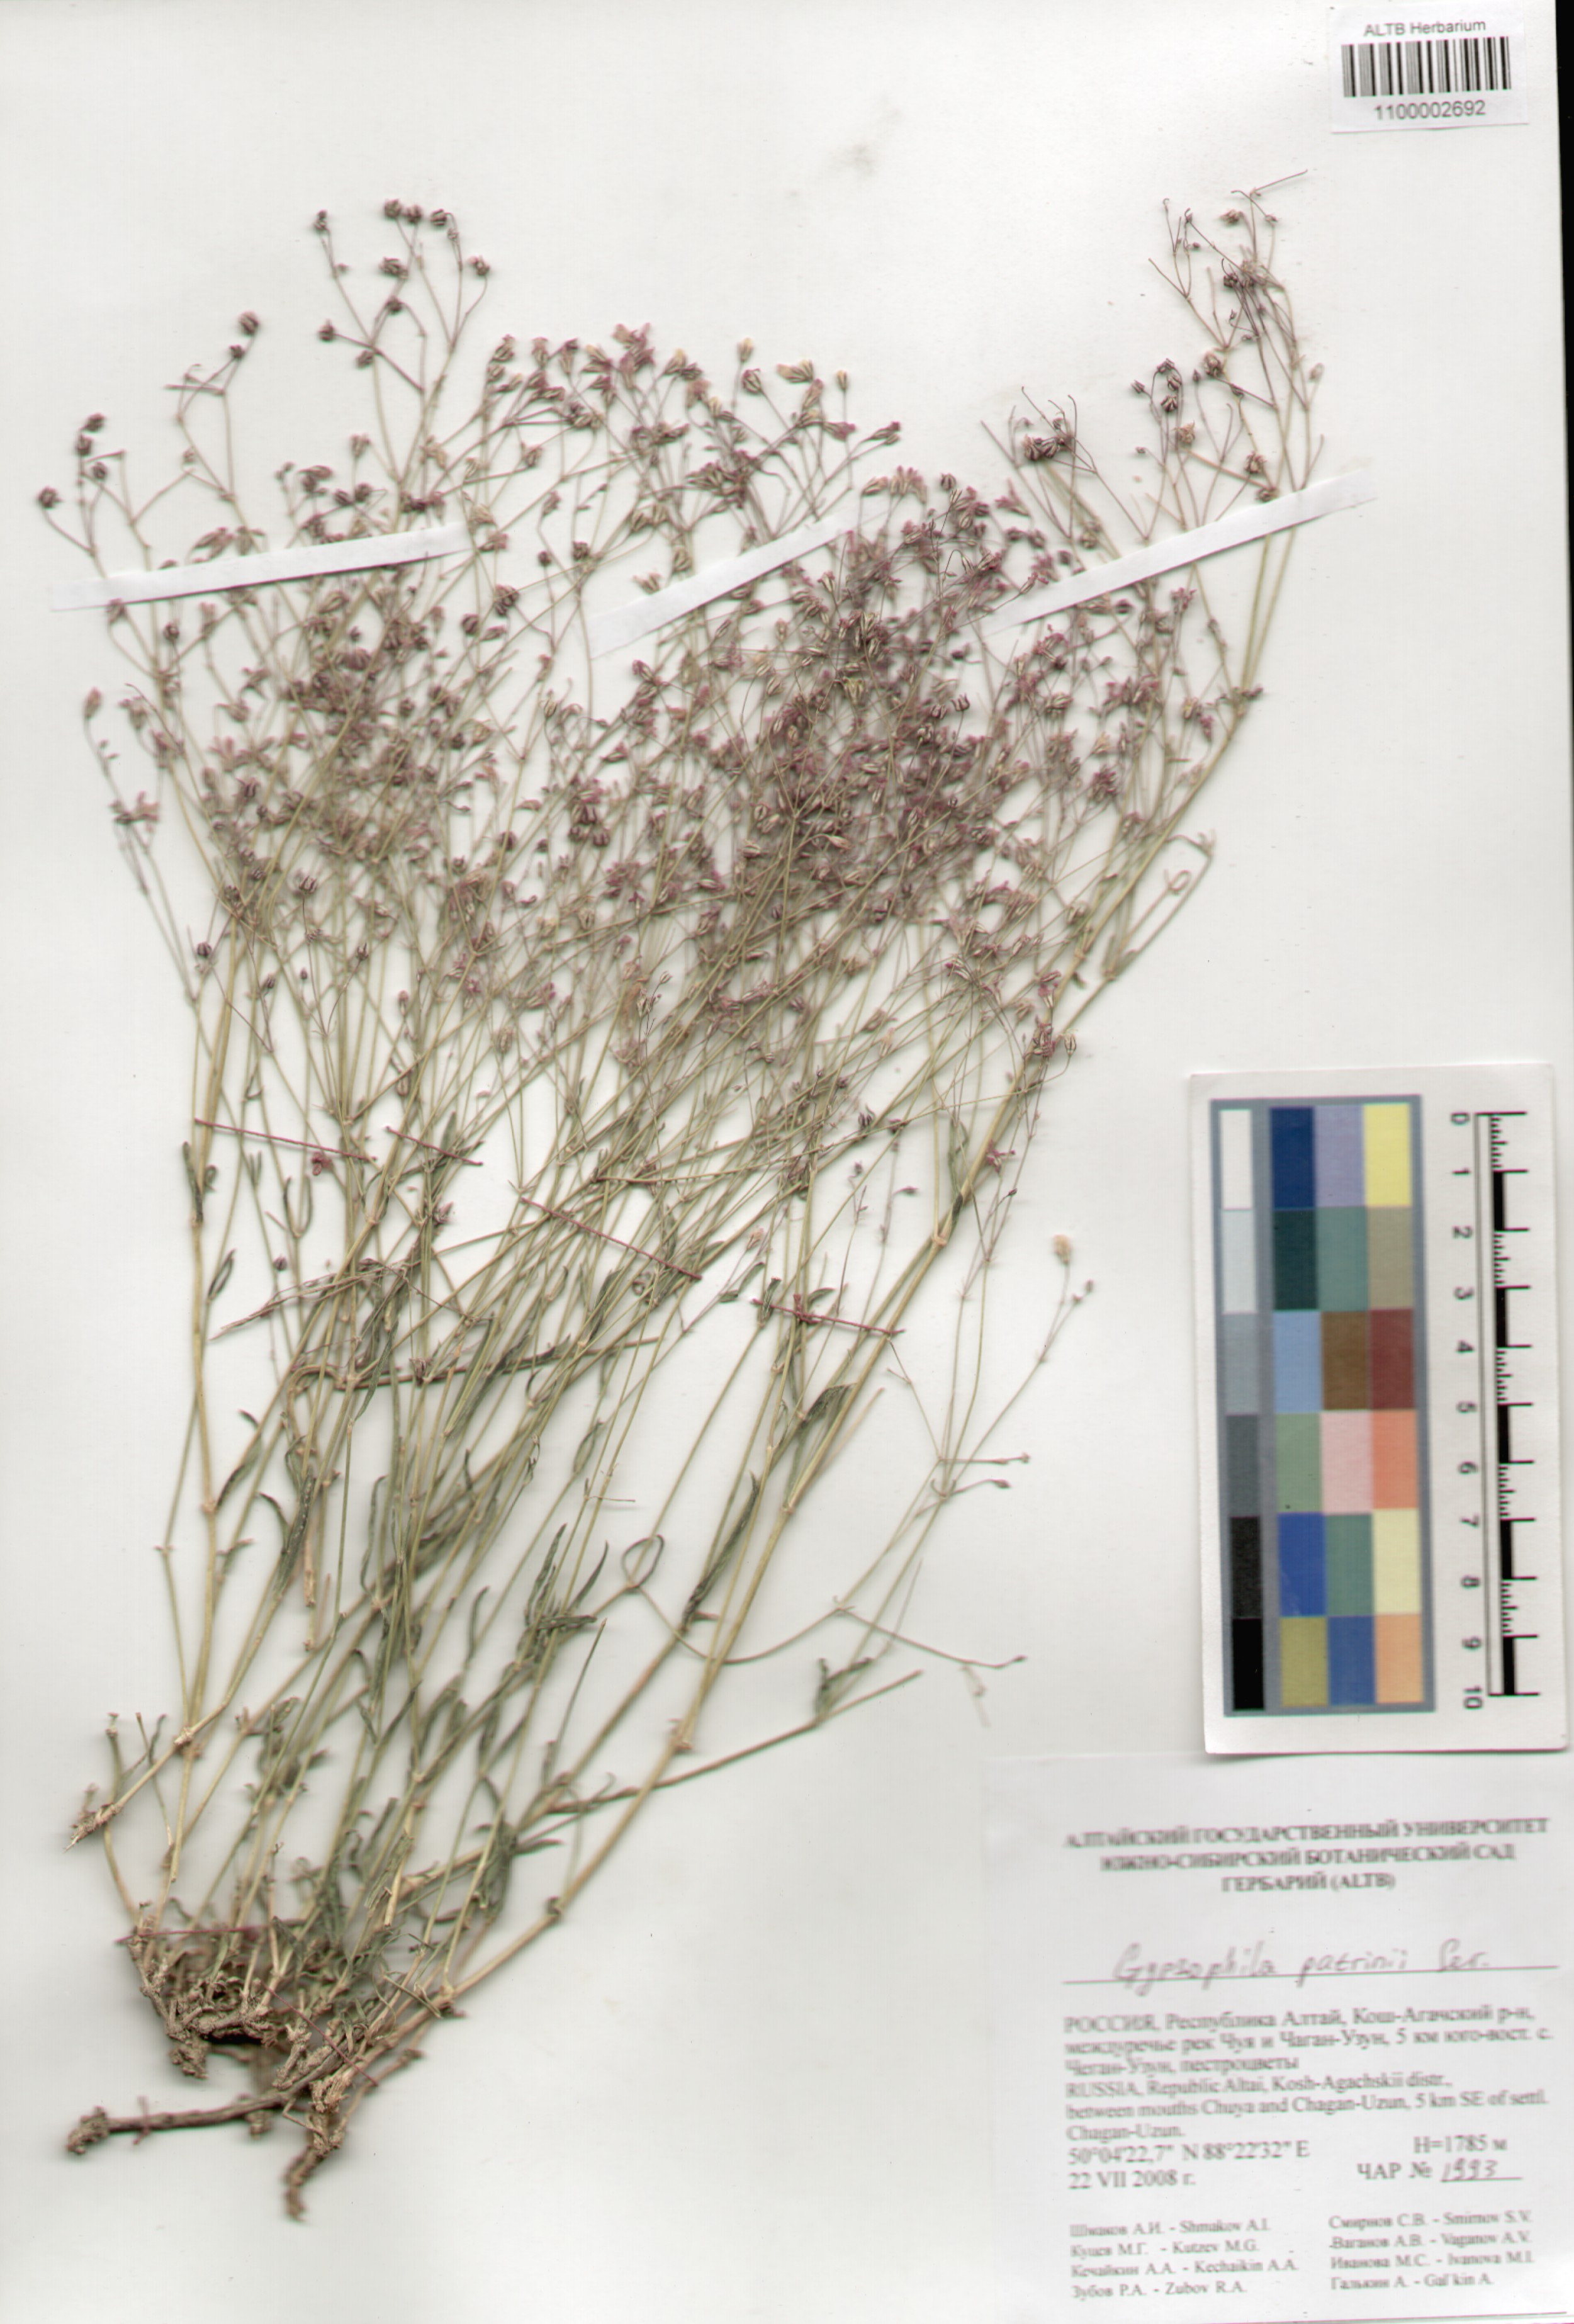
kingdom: Plantae
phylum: Tracheophyta
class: Magnoliopsida
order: Caryophyllales
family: Caryophyllaceae
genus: Gypsophila
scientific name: Gypsophila patrinii
